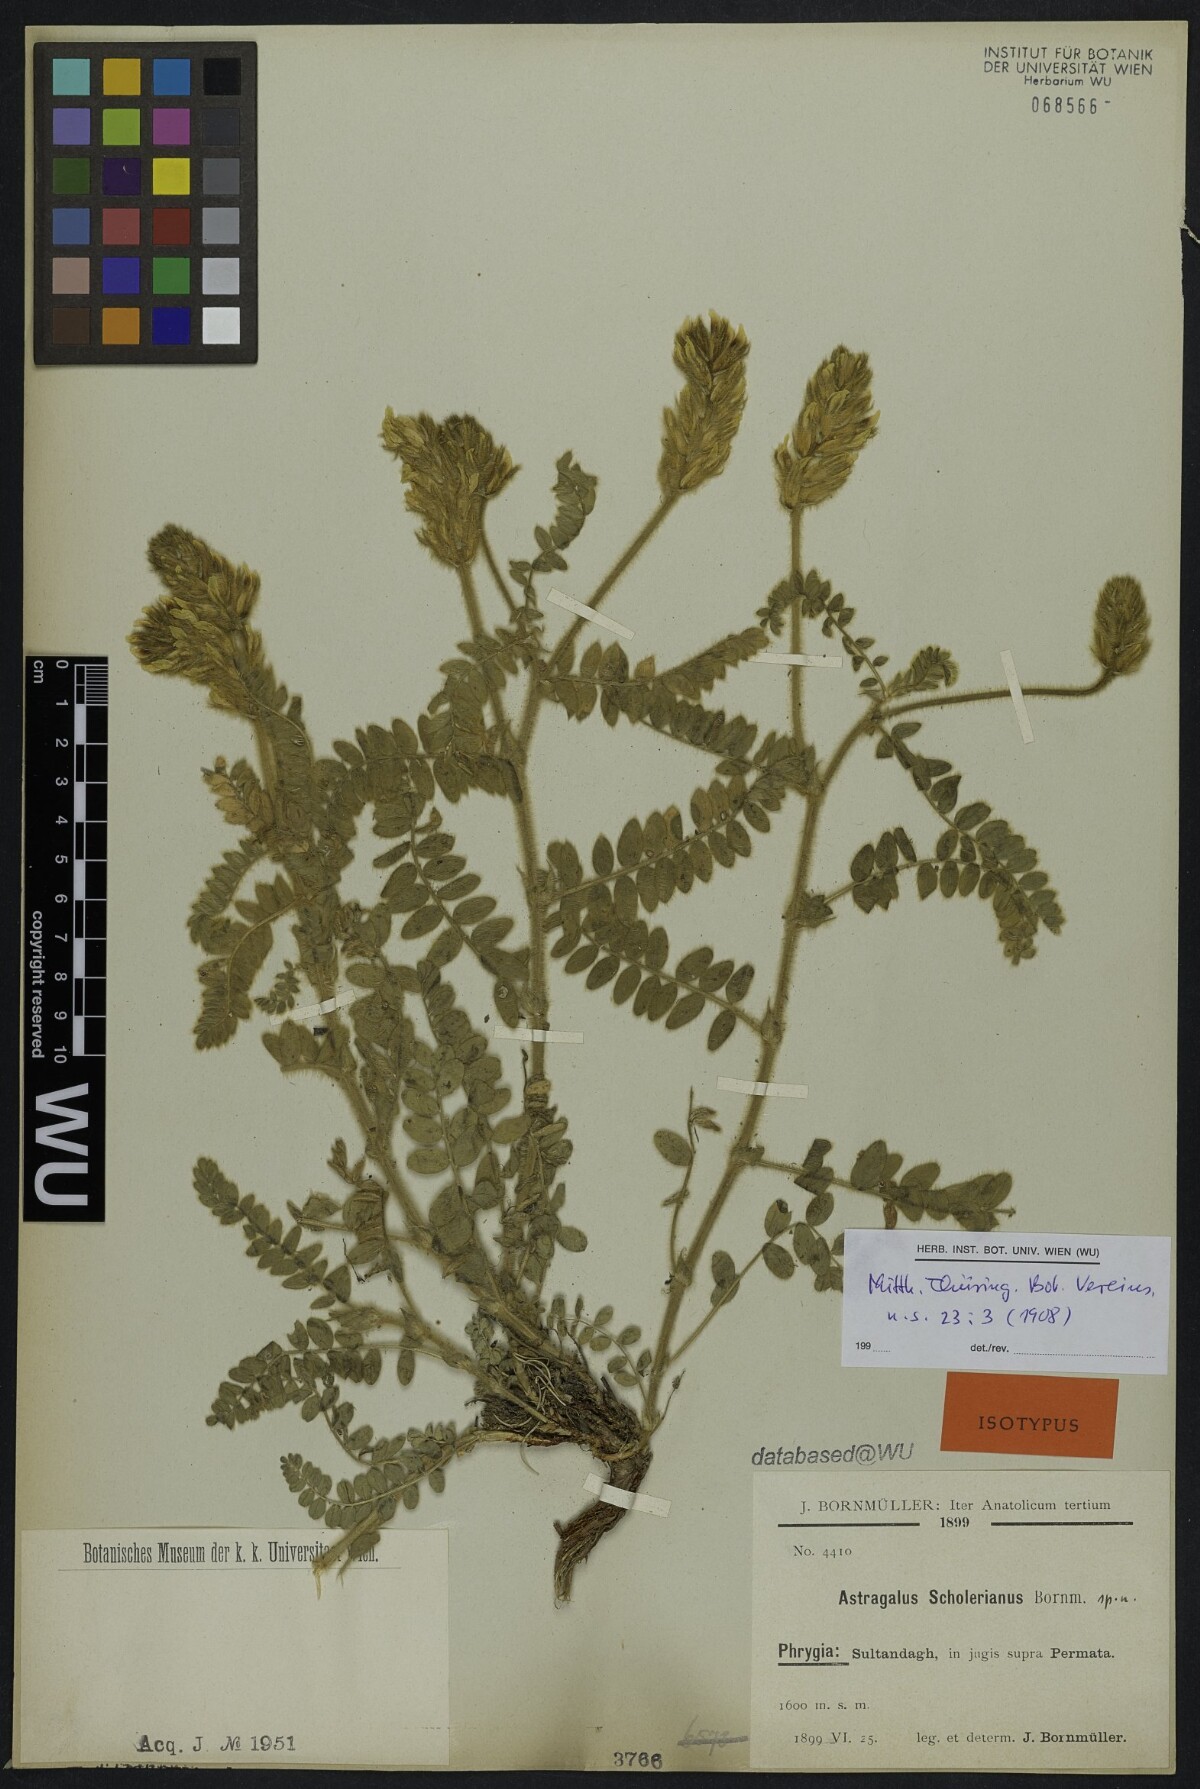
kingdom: Plantae
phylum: Tracheophyta
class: Magnoliopsida
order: Fabales
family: Fabaceae
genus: Astragalus
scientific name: Astragalus scholerianus
